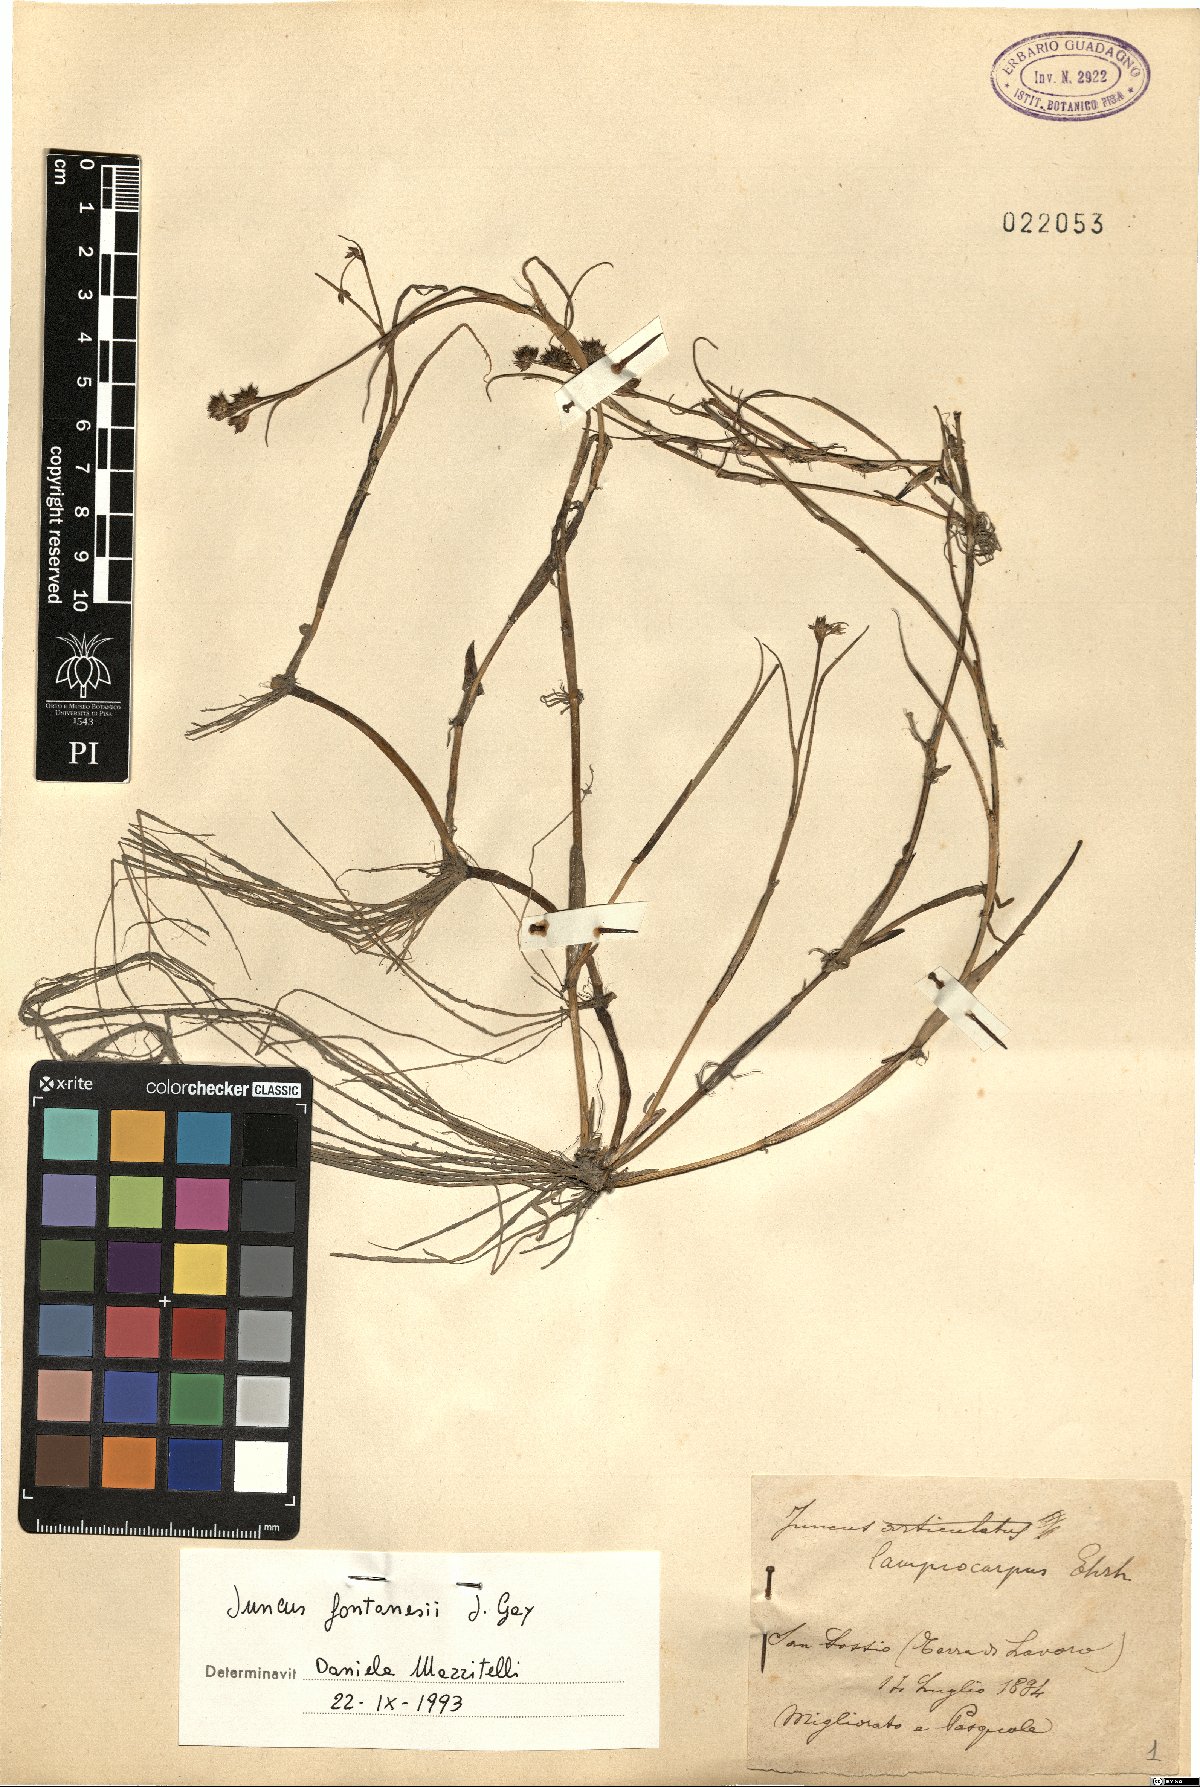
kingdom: Plantae
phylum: Tracheophyta
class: Liliopsida
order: Poales
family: Juncaceae
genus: Juncus
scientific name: Juncus fontanesii
